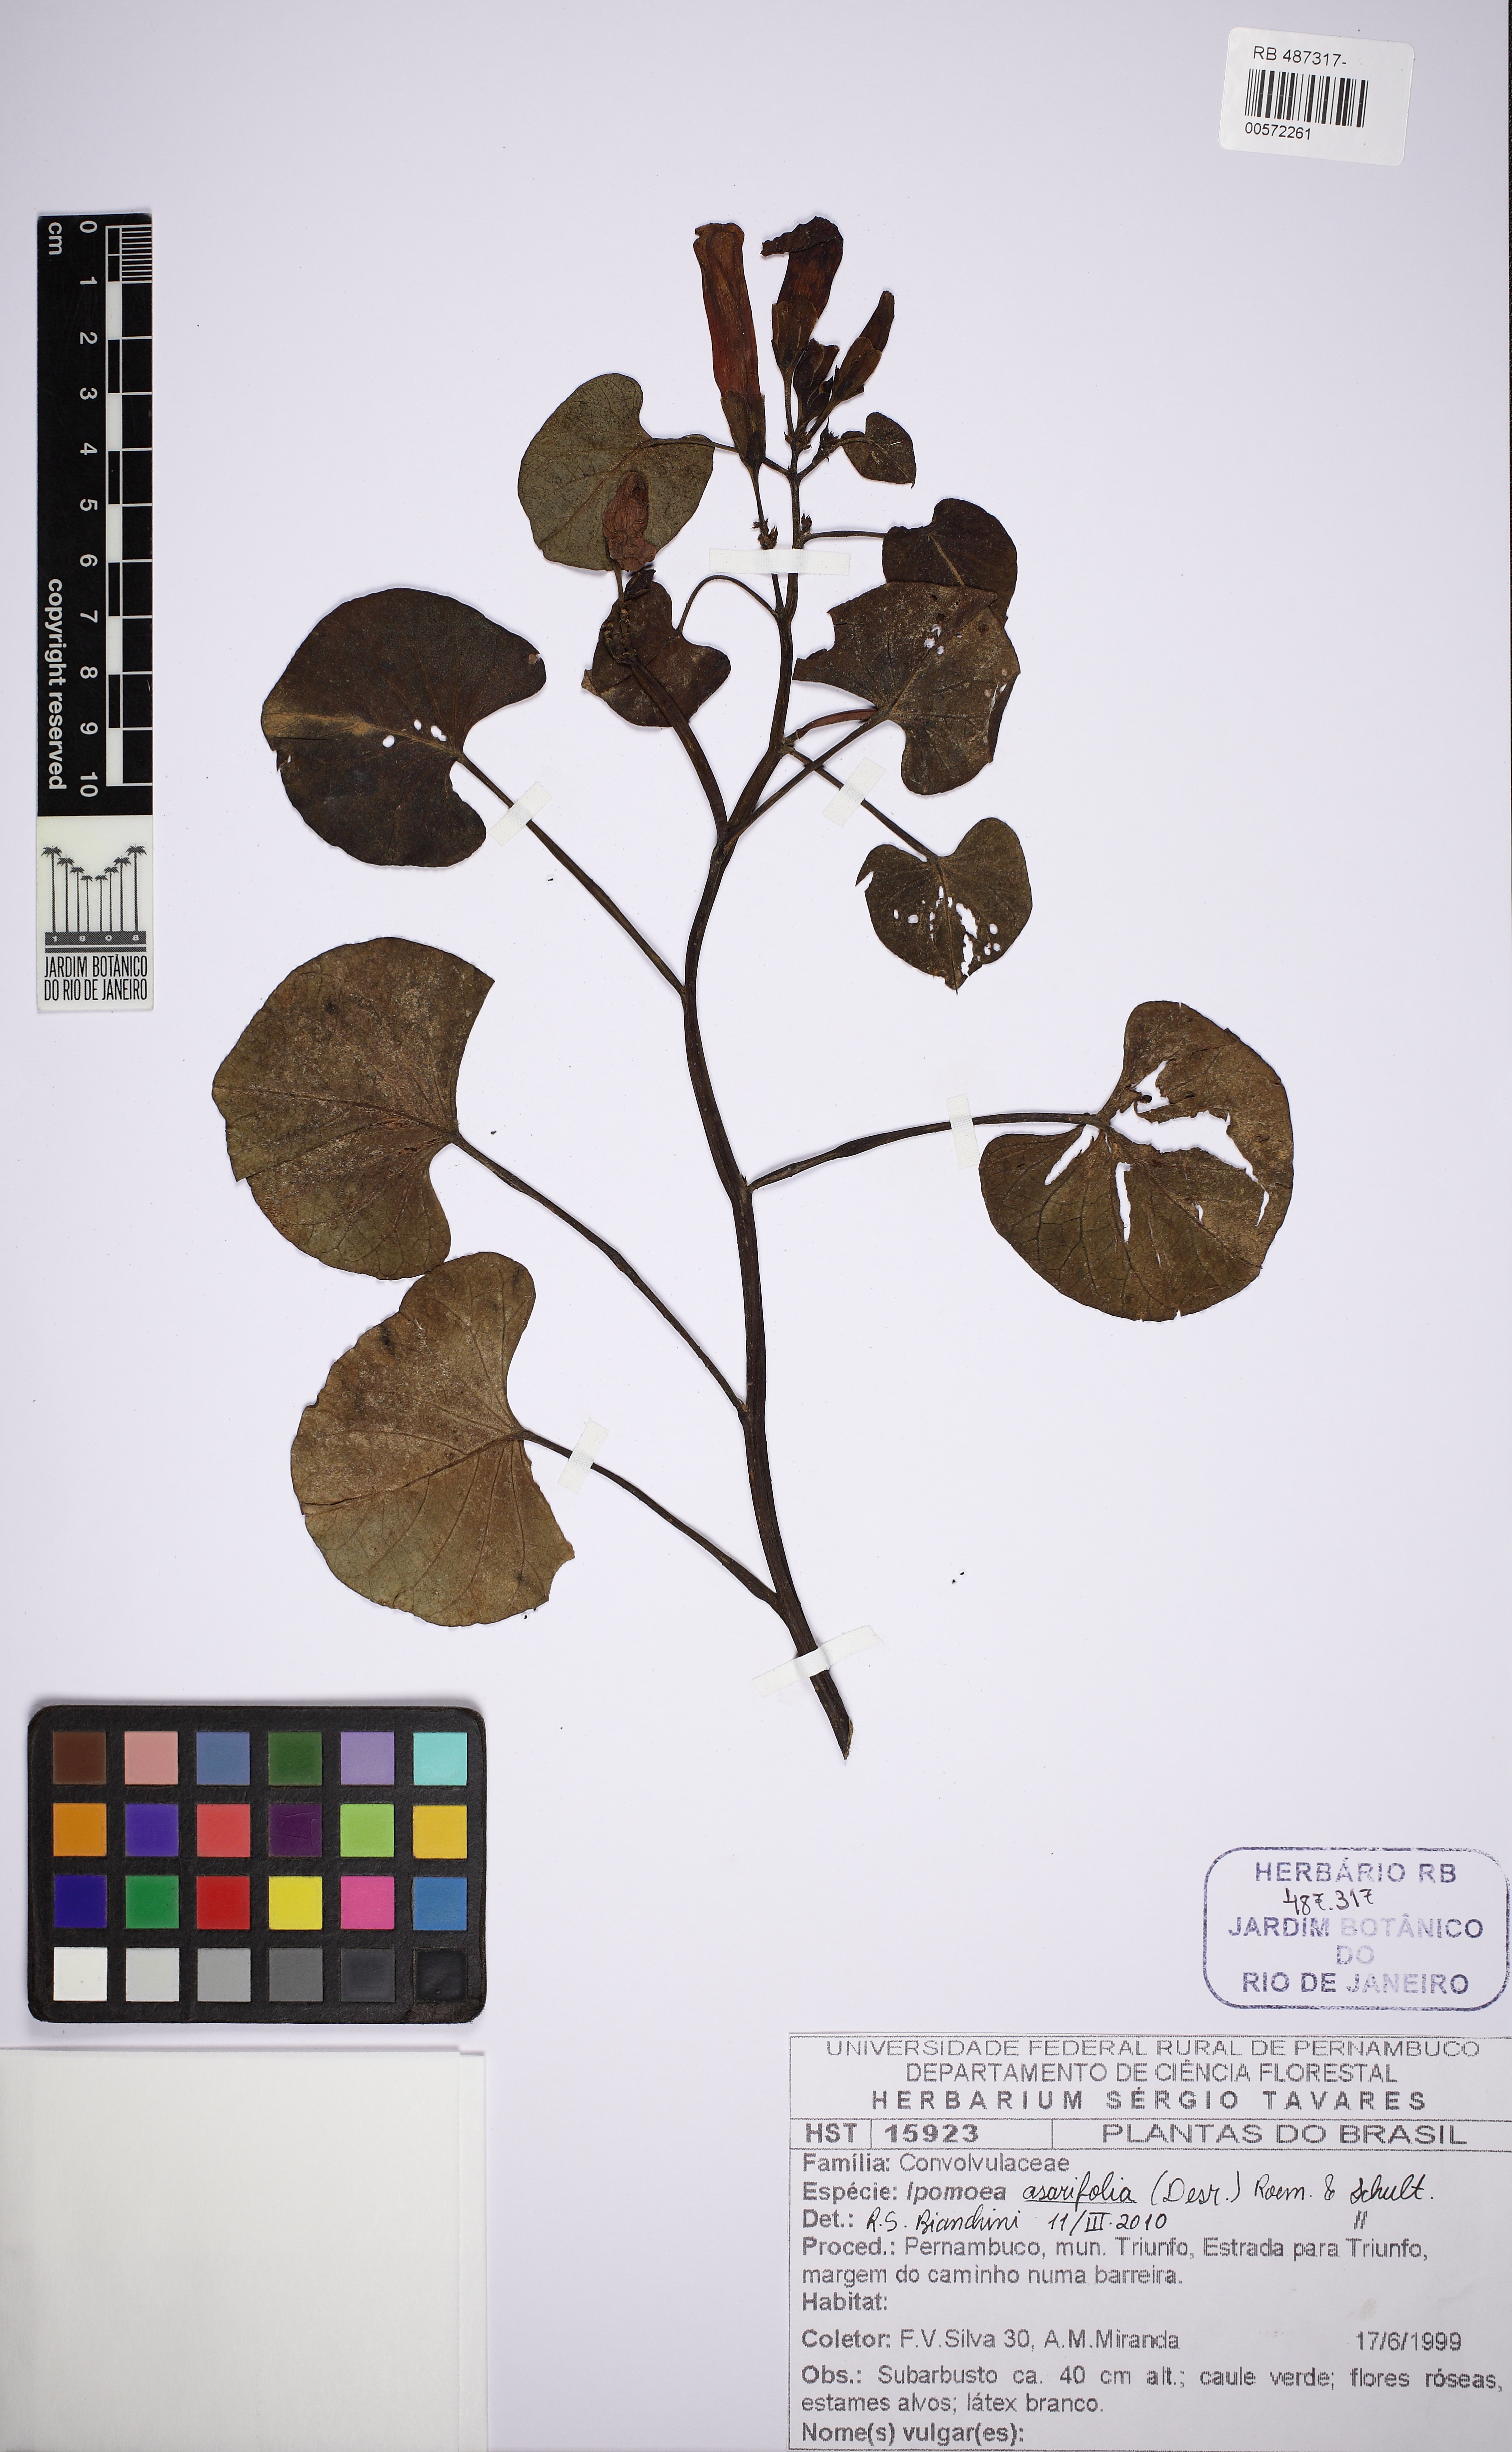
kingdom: Plantae
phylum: Tracheophyta
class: Magnoliopsida
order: Solanales
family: Convolvulaceae
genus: Ipomoea
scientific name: Ipomoea asarifolia
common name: Ginger-leaf morning-glory
